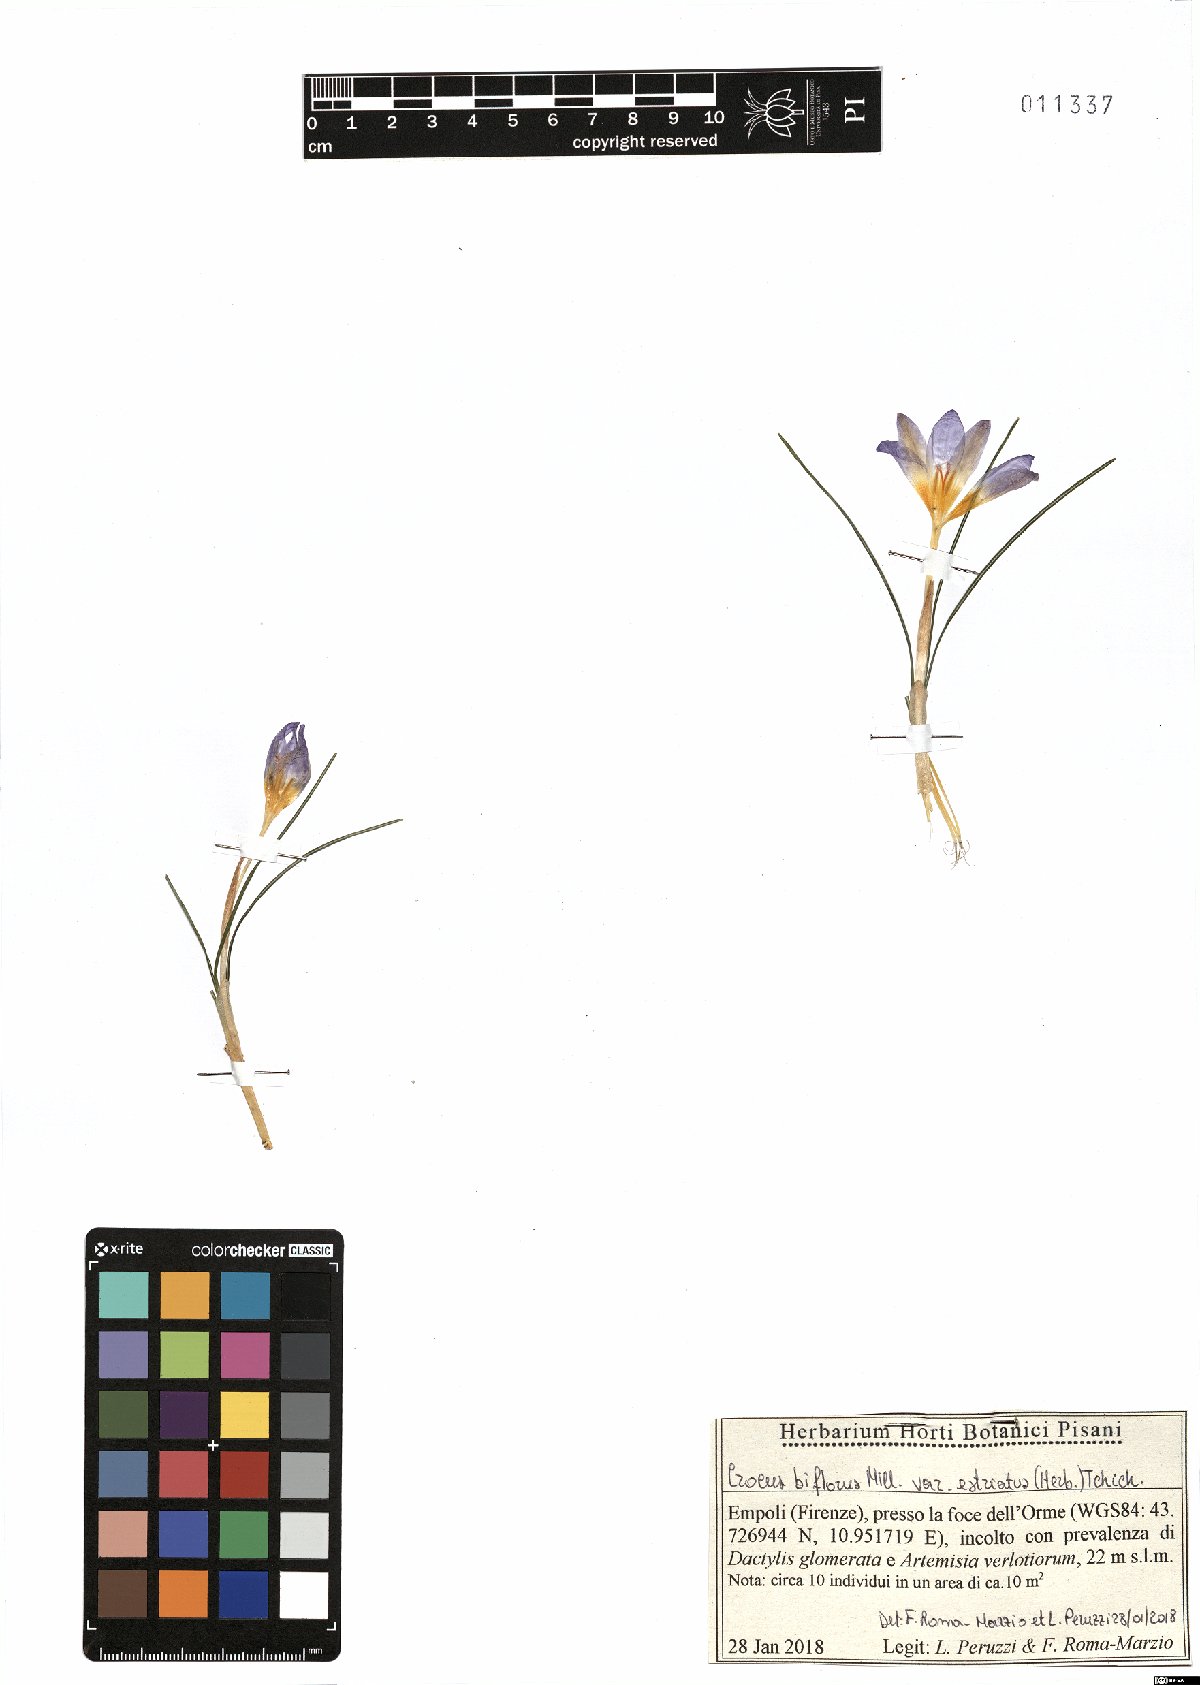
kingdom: Plantae
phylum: Tracheophyta
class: Liliopsida
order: Asparagales
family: Iridaceae
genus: Crocus
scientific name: Crocus biflorus
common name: Silvery crocus
